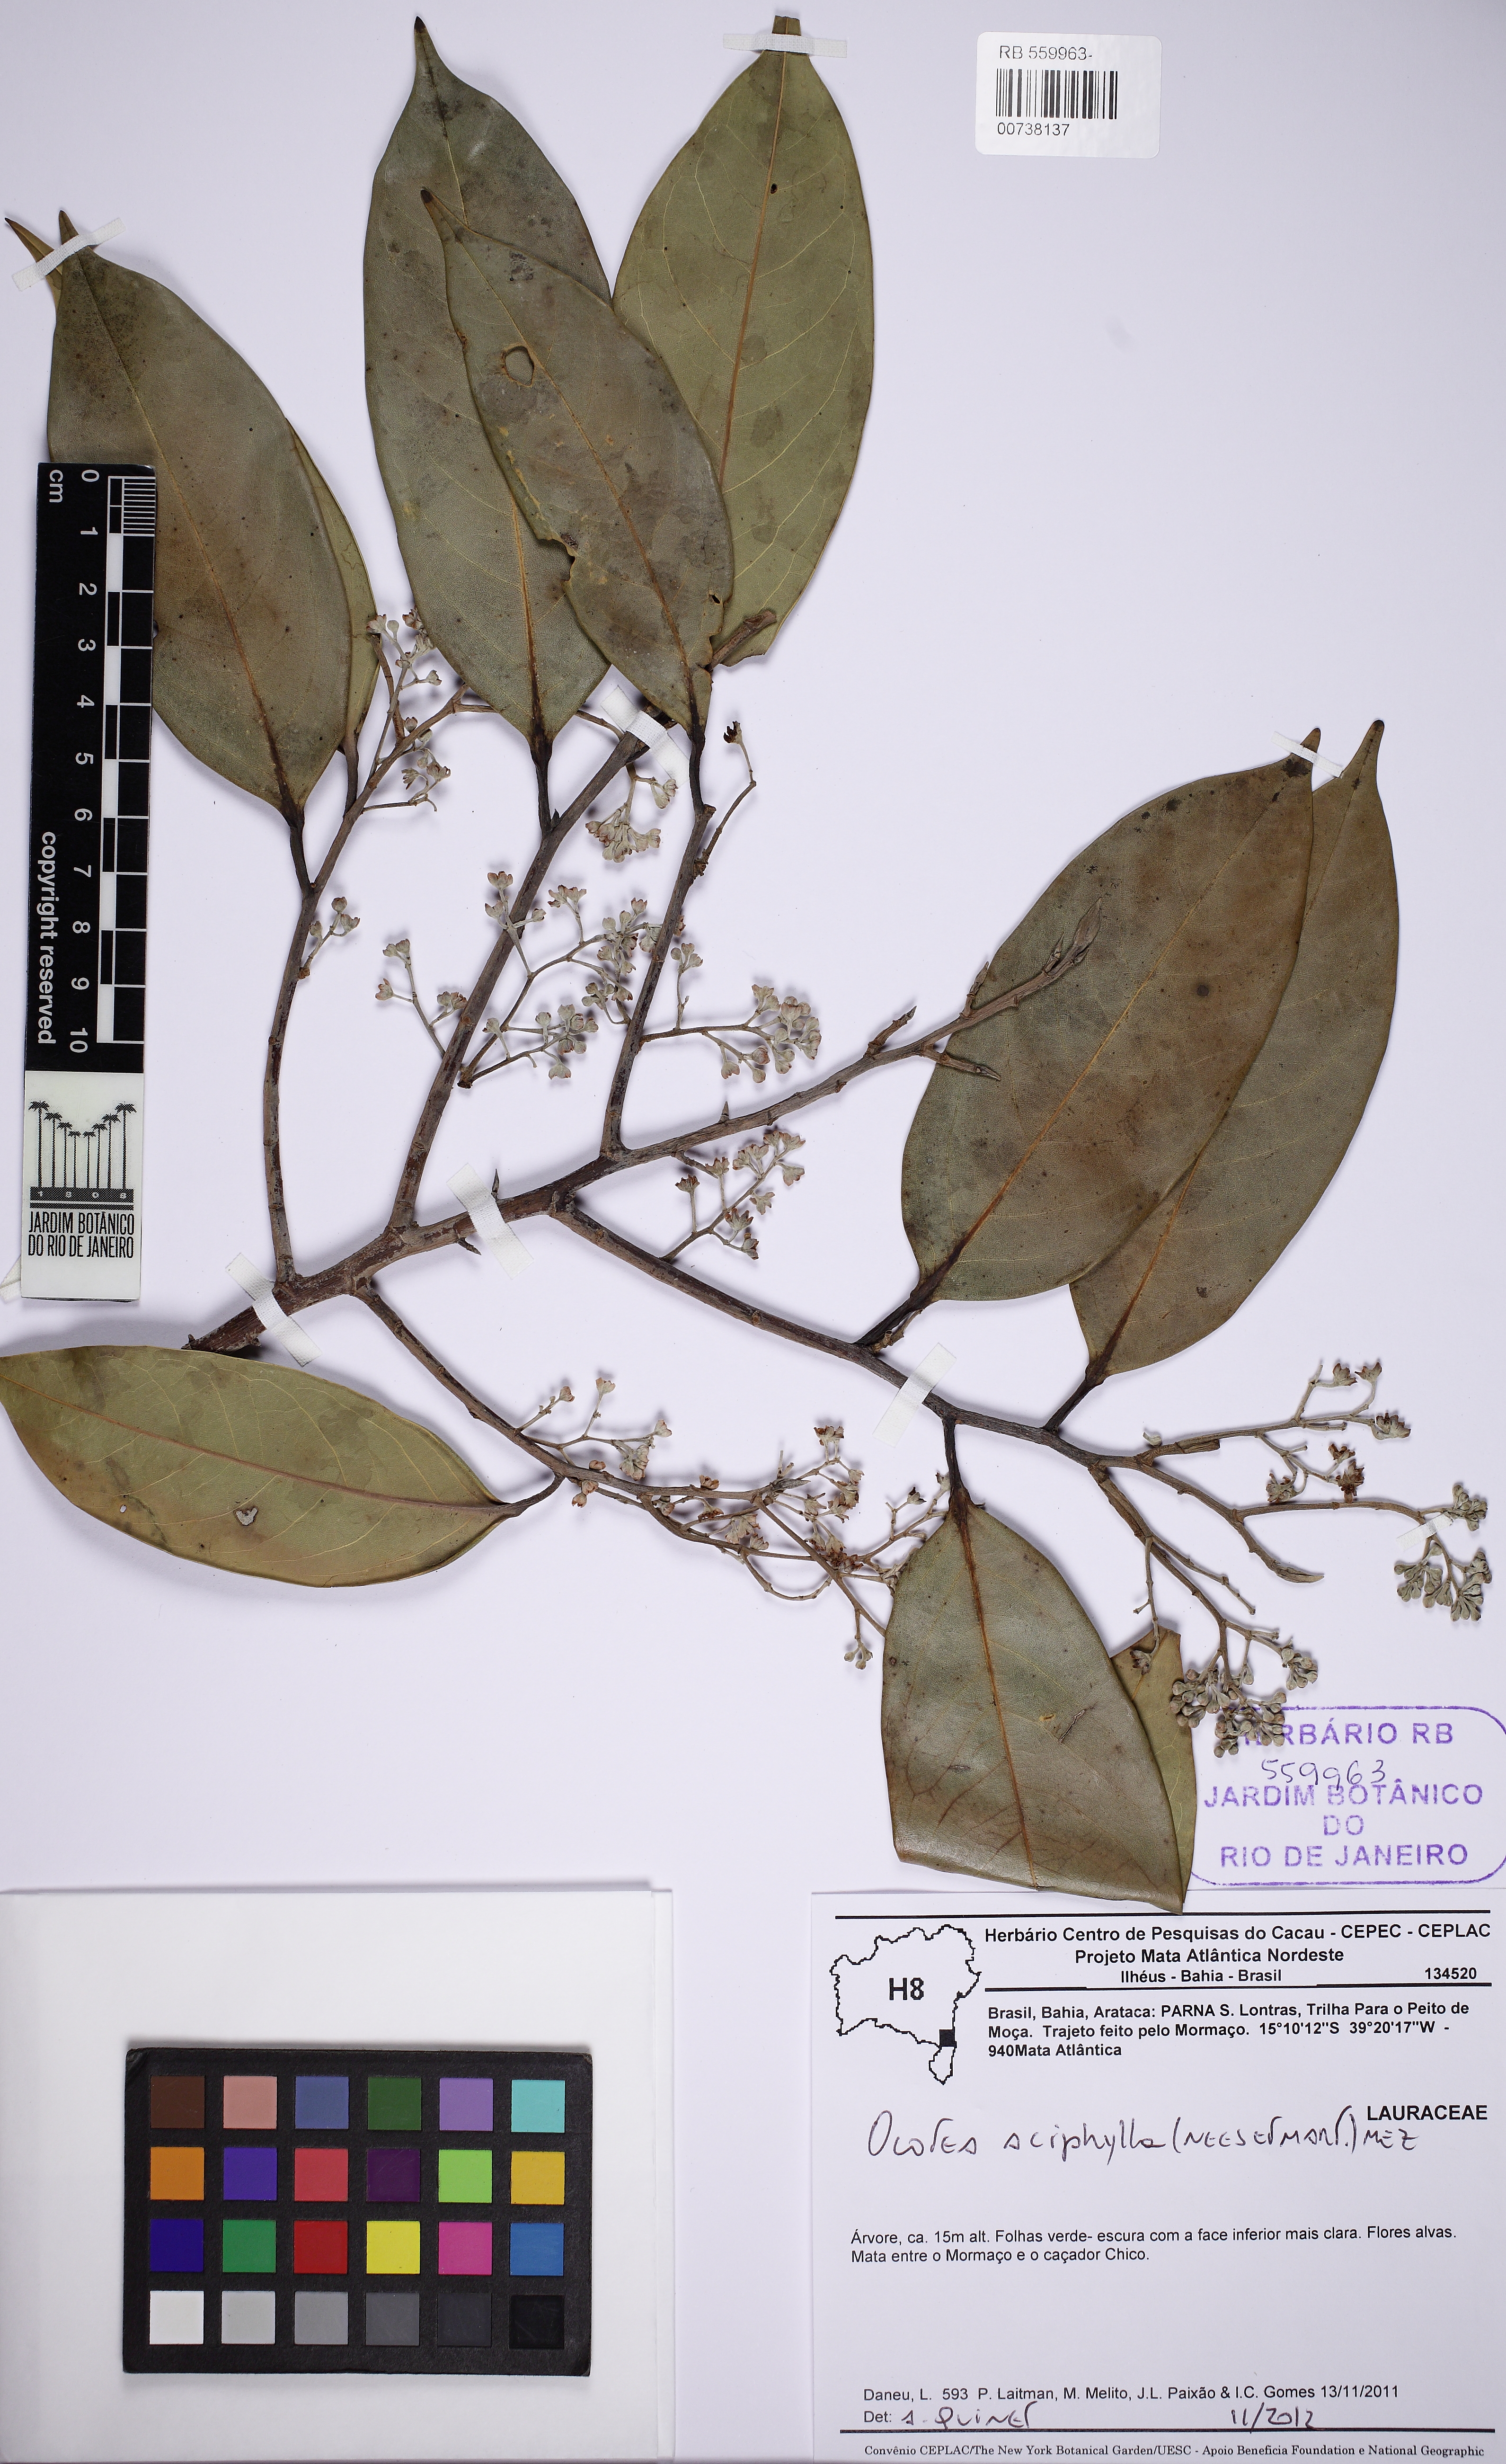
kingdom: Plantae
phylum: Tracheophyta
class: Magnoliopsida
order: Laurales
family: Lauraceae
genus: Ocotea
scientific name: Ocotea aciphylla
